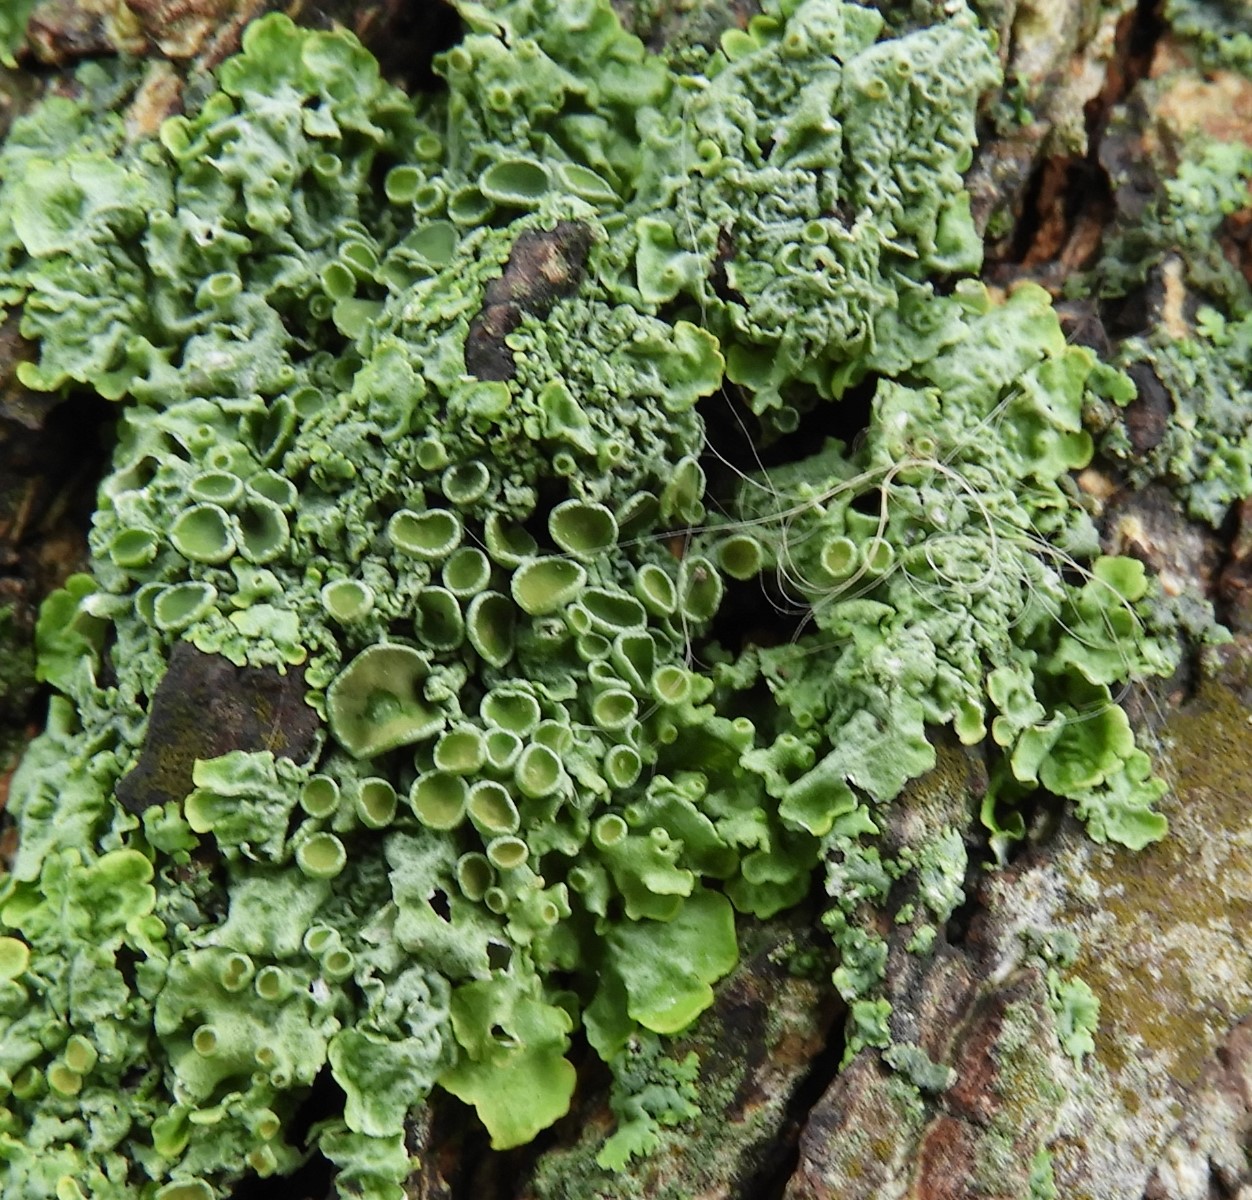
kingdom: Fungi
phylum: Ascomycota
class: Lecanoromycetes
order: Teloschistales
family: Teloschistaceae
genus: Xanthoria
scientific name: Xanthoria parietina
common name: almindelig væggelav
